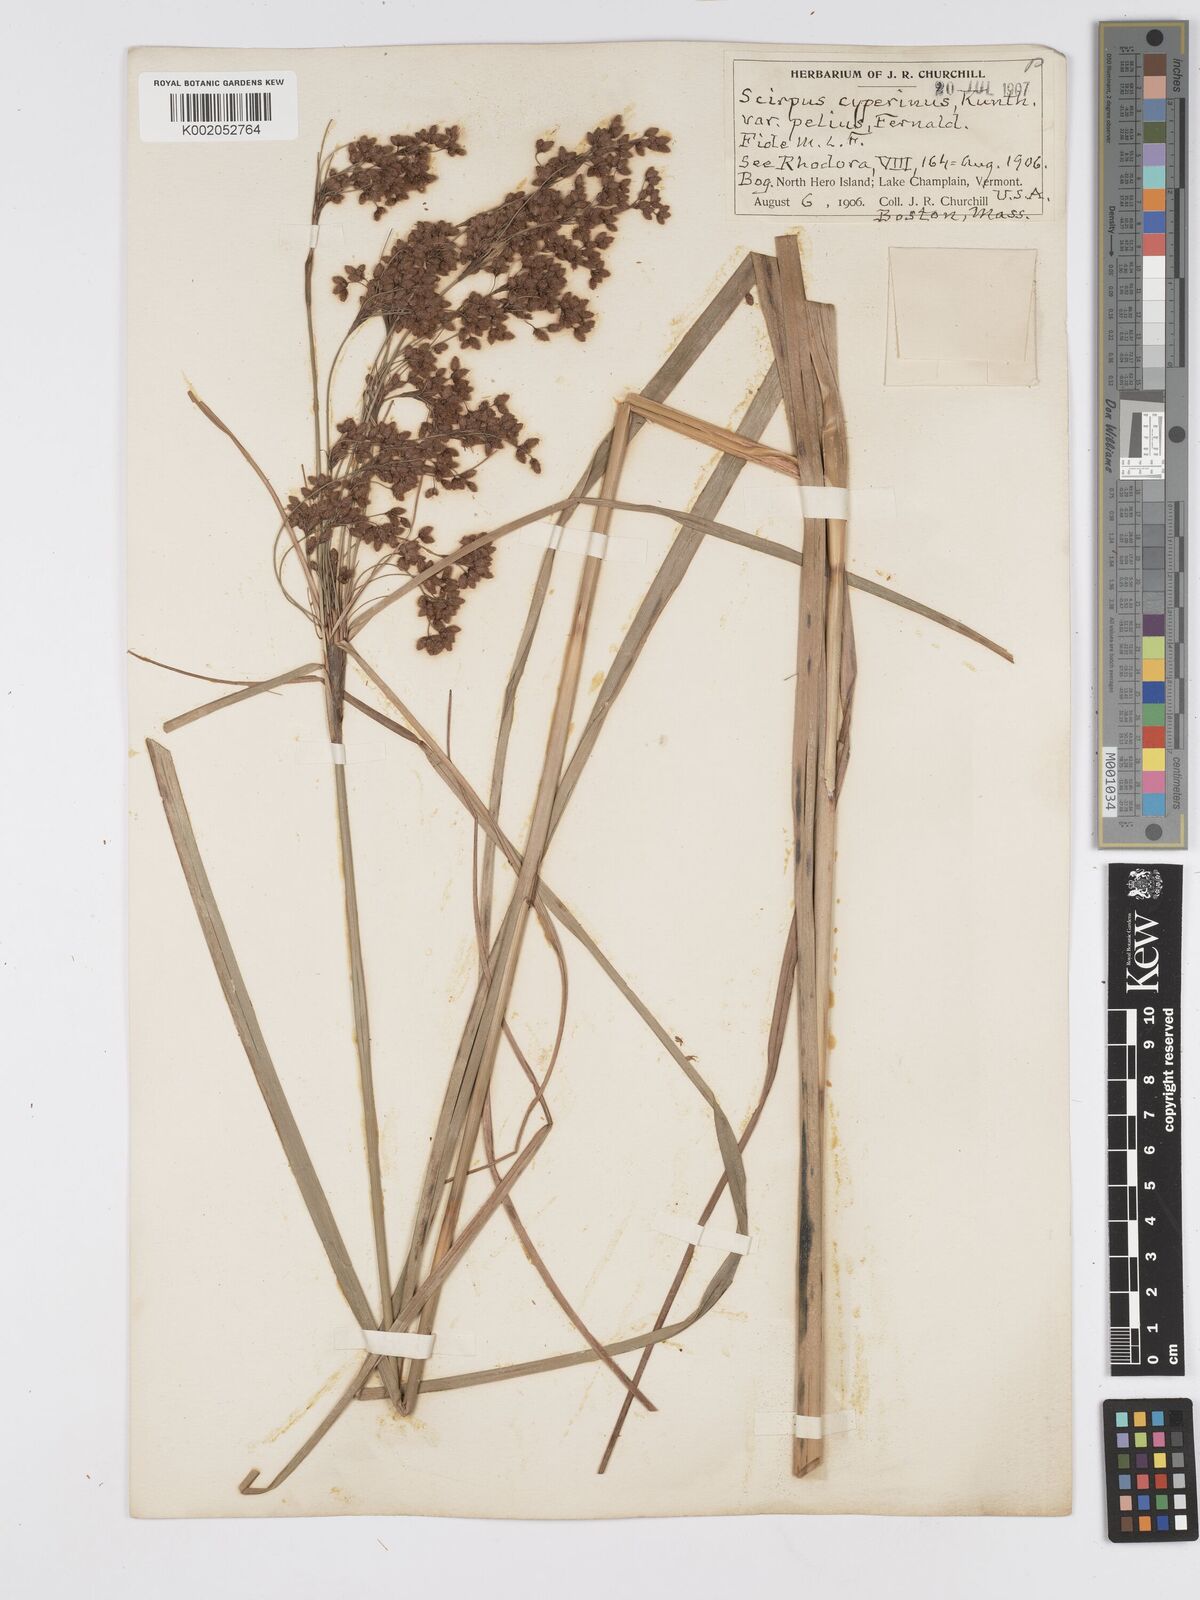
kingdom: Plantae
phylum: Tracheophyta
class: Liliopsida
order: Poales
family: Cyperaceae
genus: Scirpus
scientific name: Scirpus cyperinus
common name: Black-sheathed bulrush
